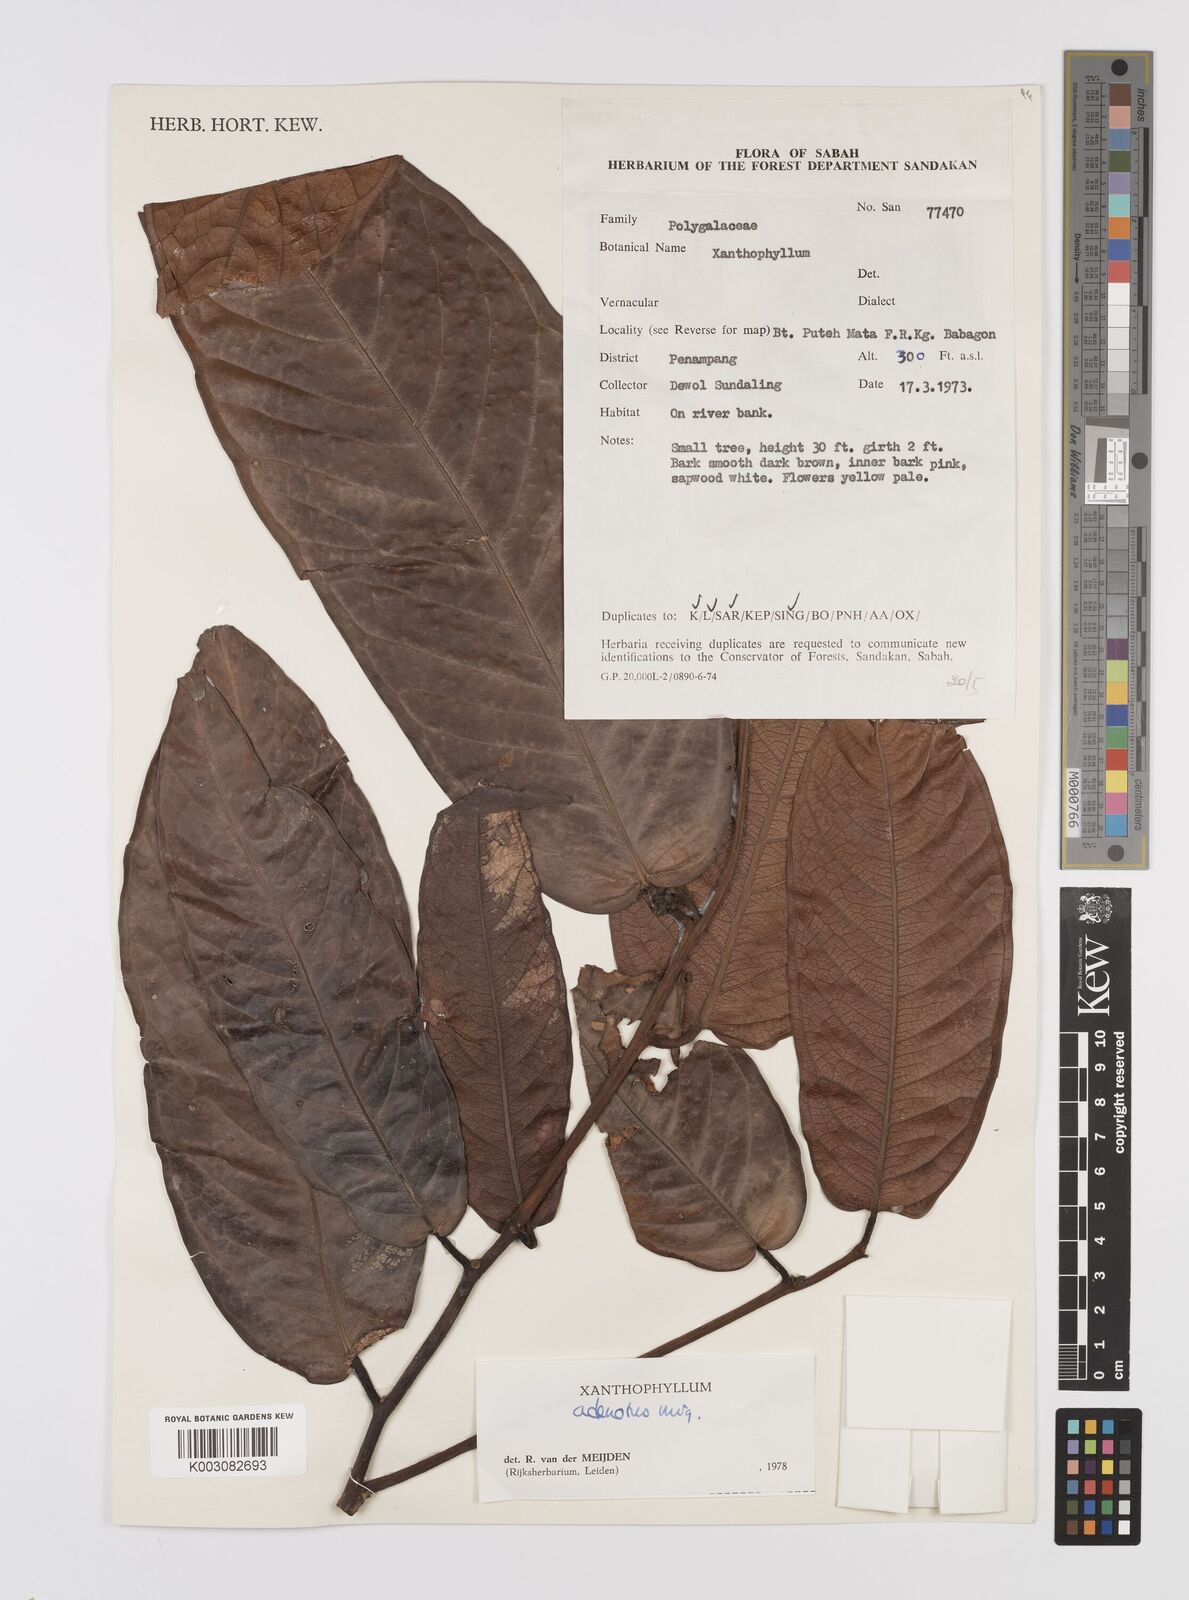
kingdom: Plantae
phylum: Tracheophyta
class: Magnoliopsida
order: Fabales
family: Polygalaceae
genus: Xanthophyllum
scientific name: Xanthophyllum adenotus
